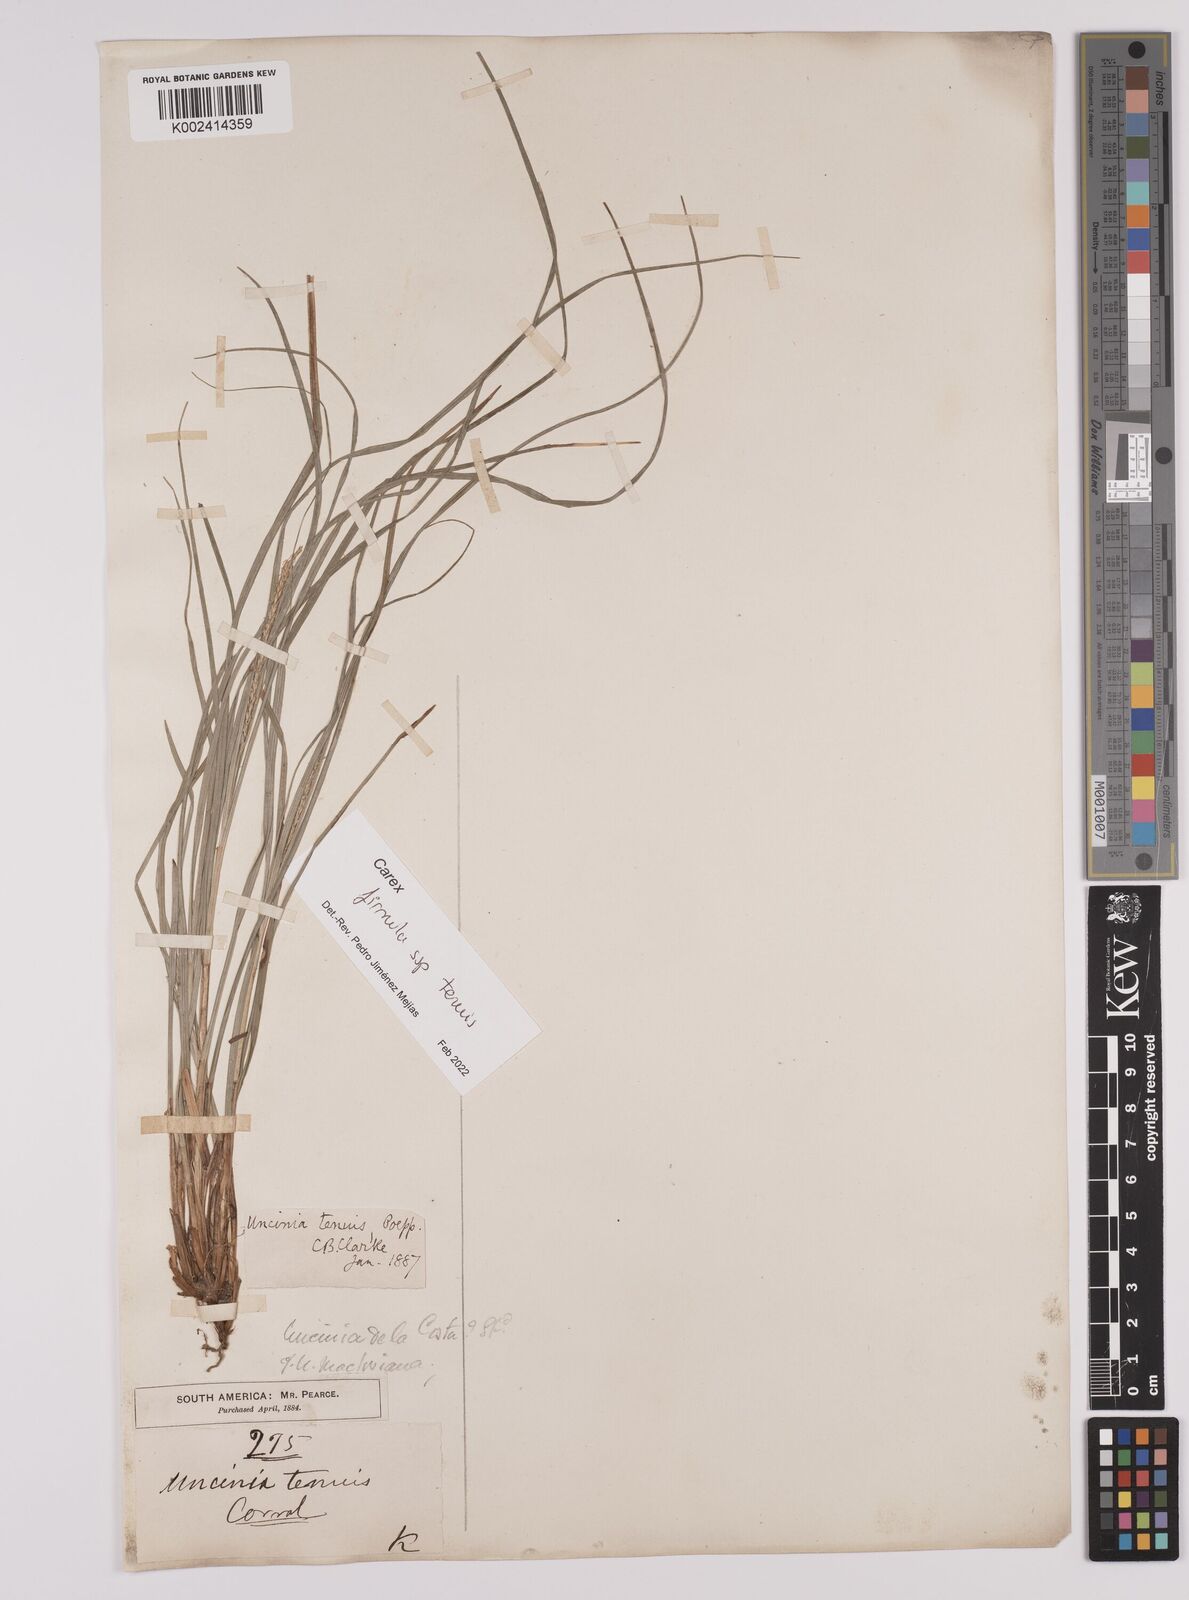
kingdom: Plantae
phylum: Tracheophyta
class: Liliopsida
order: Poales
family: Cyperaceae
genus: Carex
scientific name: Carex firmula
